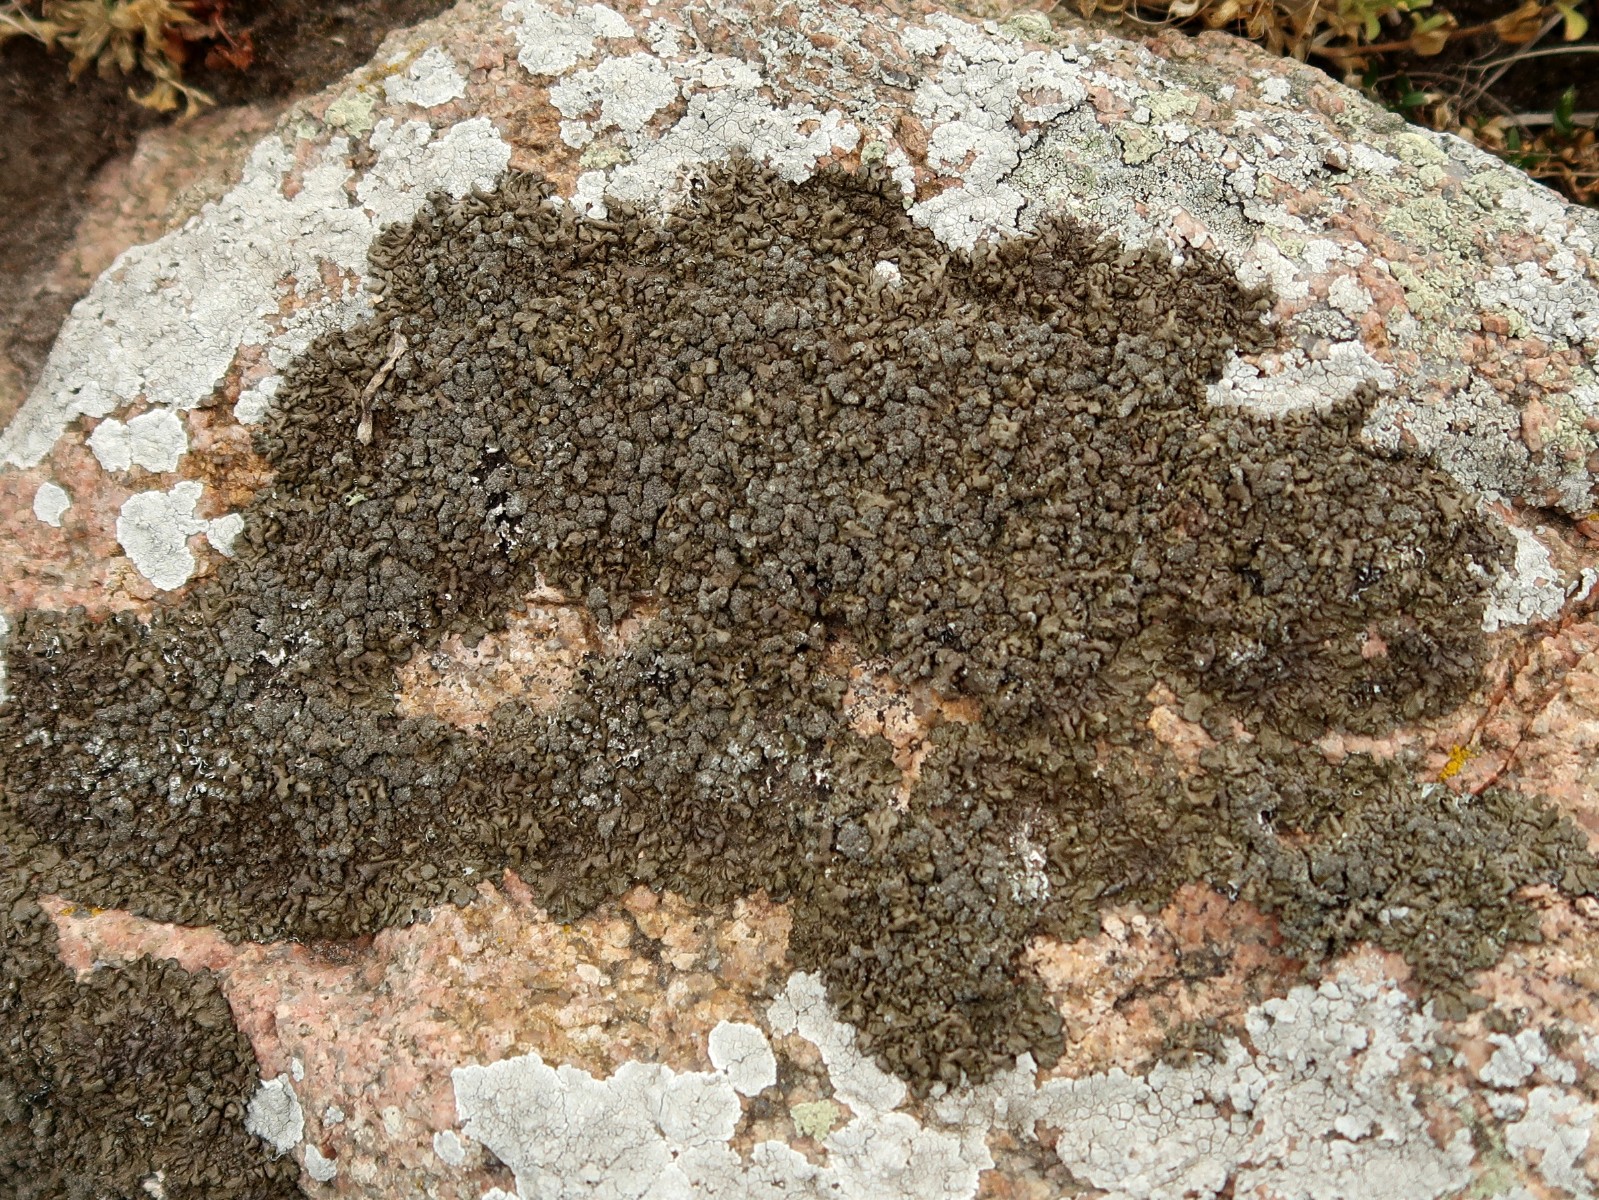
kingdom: Fungi
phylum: Ascomycota
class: Lecanoromycetes
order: Lecanorales
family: Parmeliaceae
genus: Xanthoparmelia
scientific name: Xanthoparmelia loxodes
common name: knudret skållav
